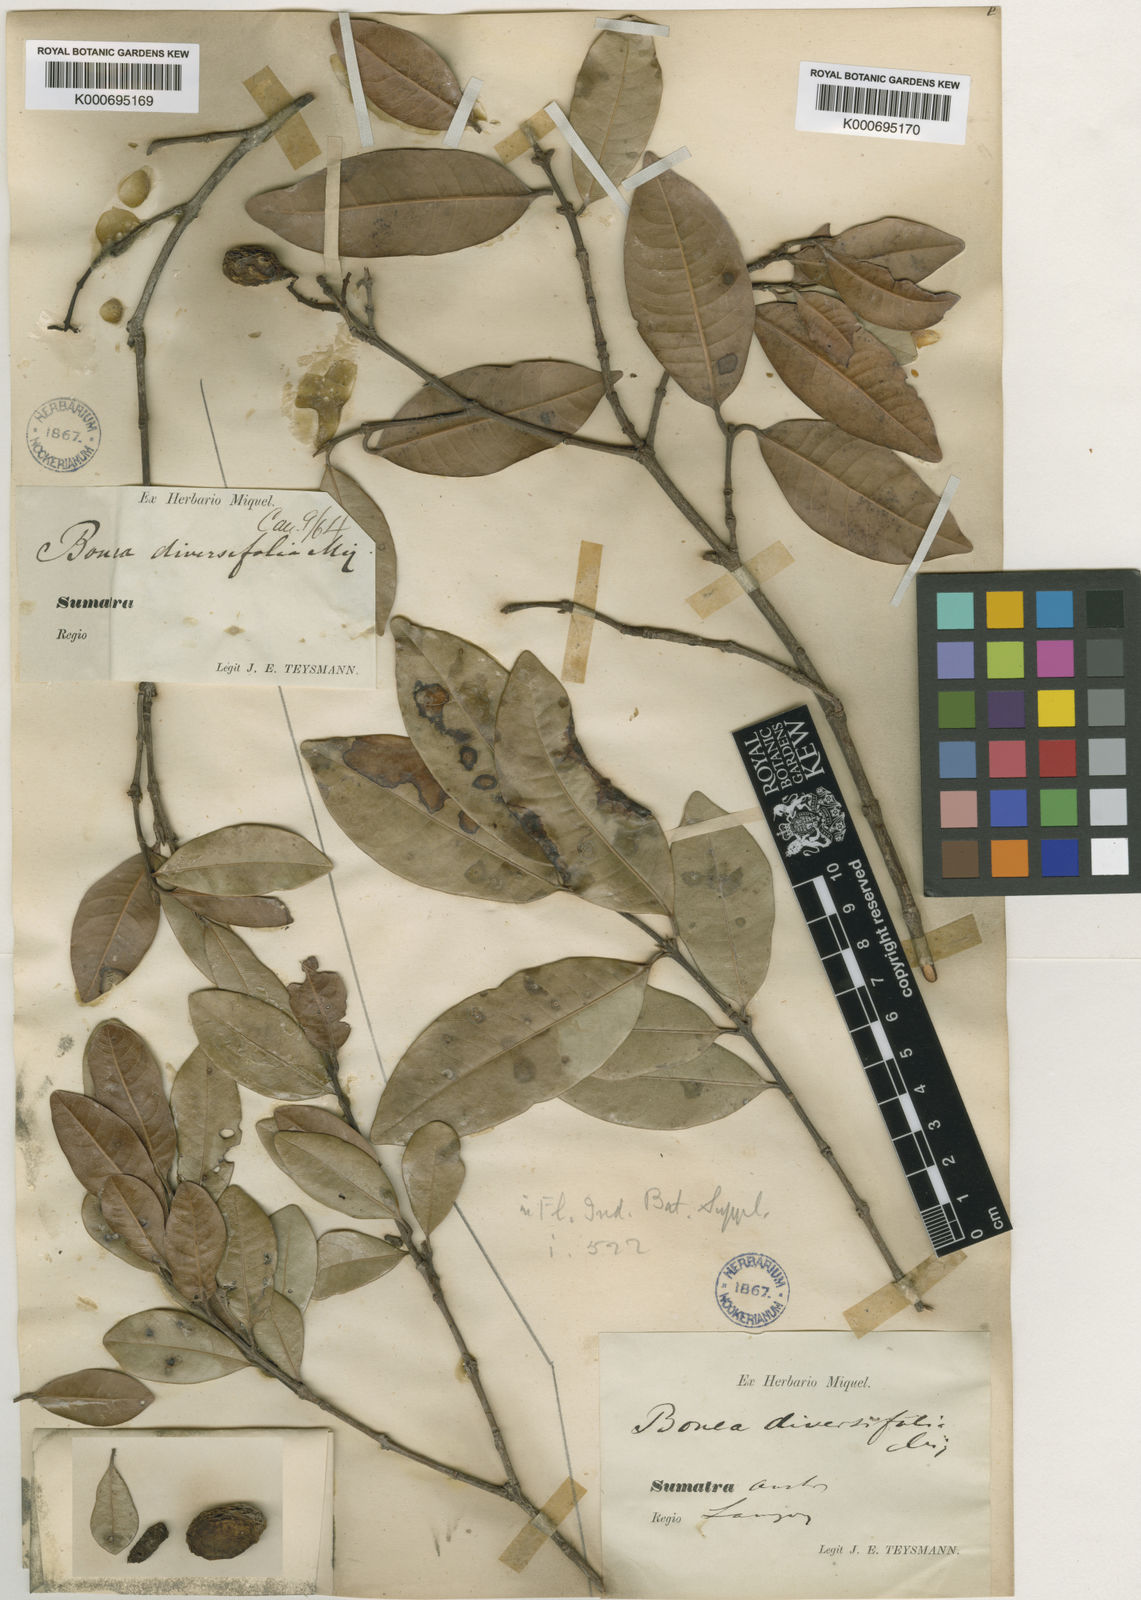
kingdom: Plantae
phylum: Tracheophyta
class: Magnoliopsida
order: Sapindales
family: Anacardiaceae
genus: Bouea
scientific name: Bouea
